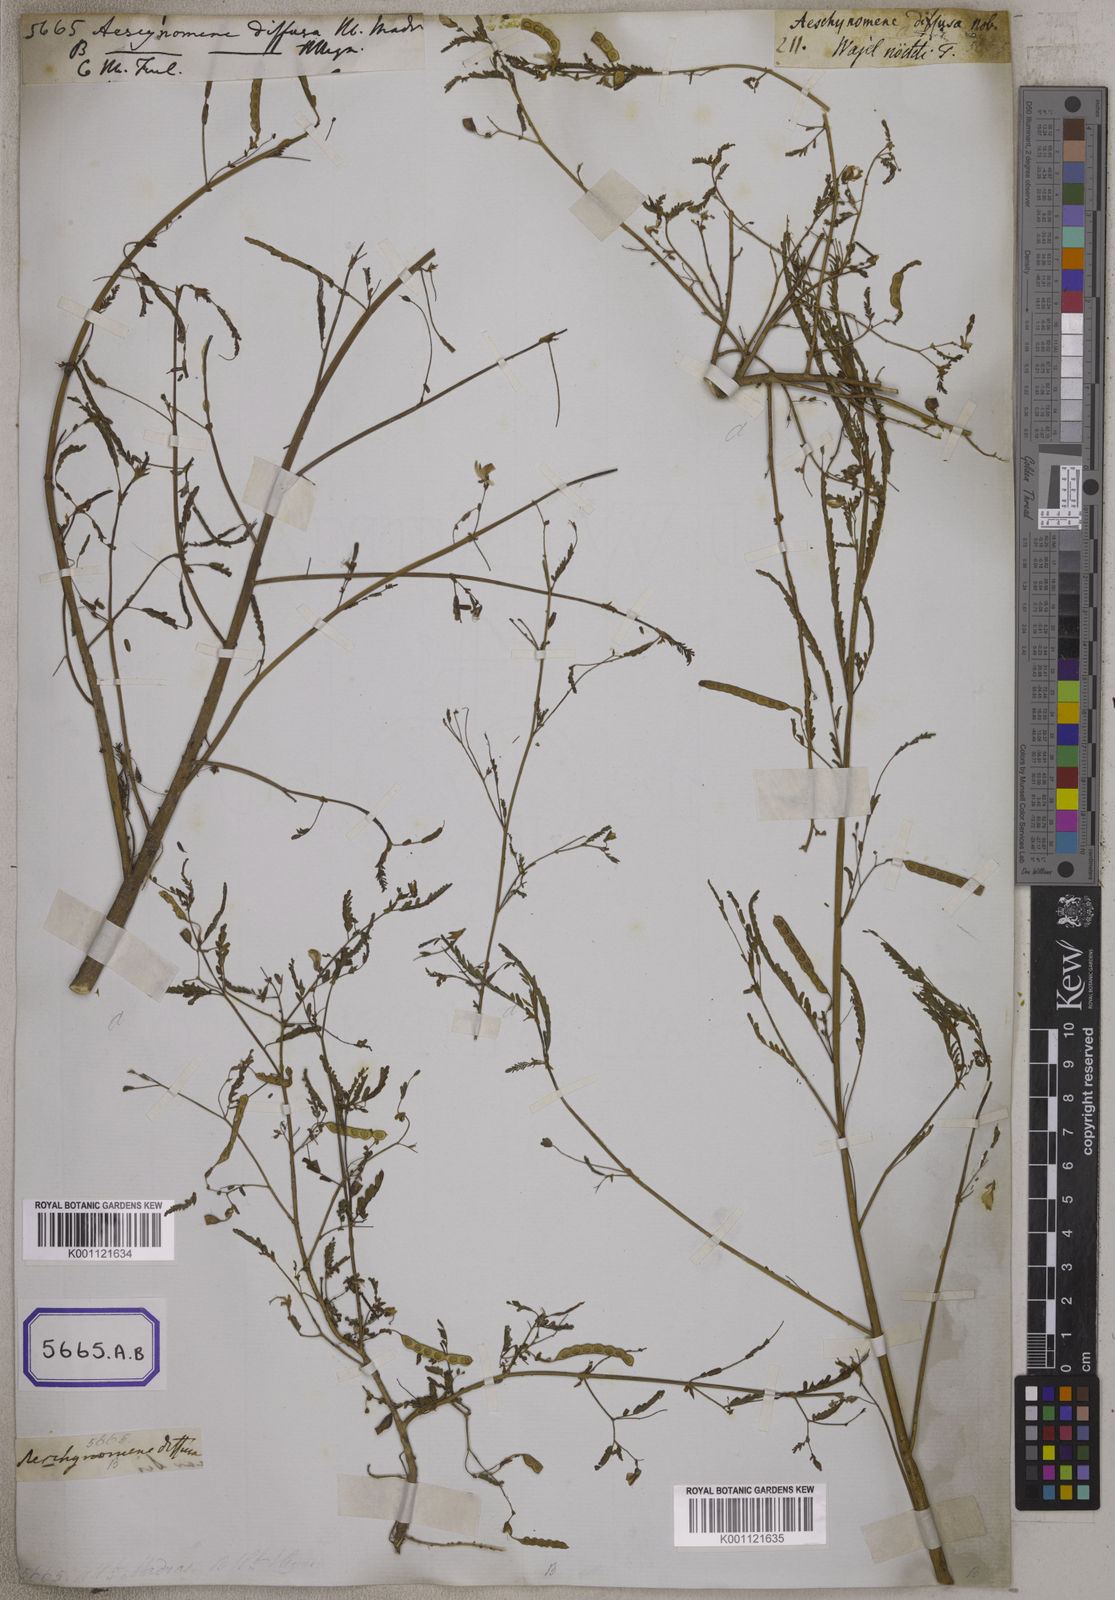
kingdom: Plantae
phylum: Tracheophyta
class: Magnoliopsida
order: Fabales
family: Fabaceae
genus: Aeschynomene
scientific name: Aeschynomene indica
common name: Indian jointvetch
